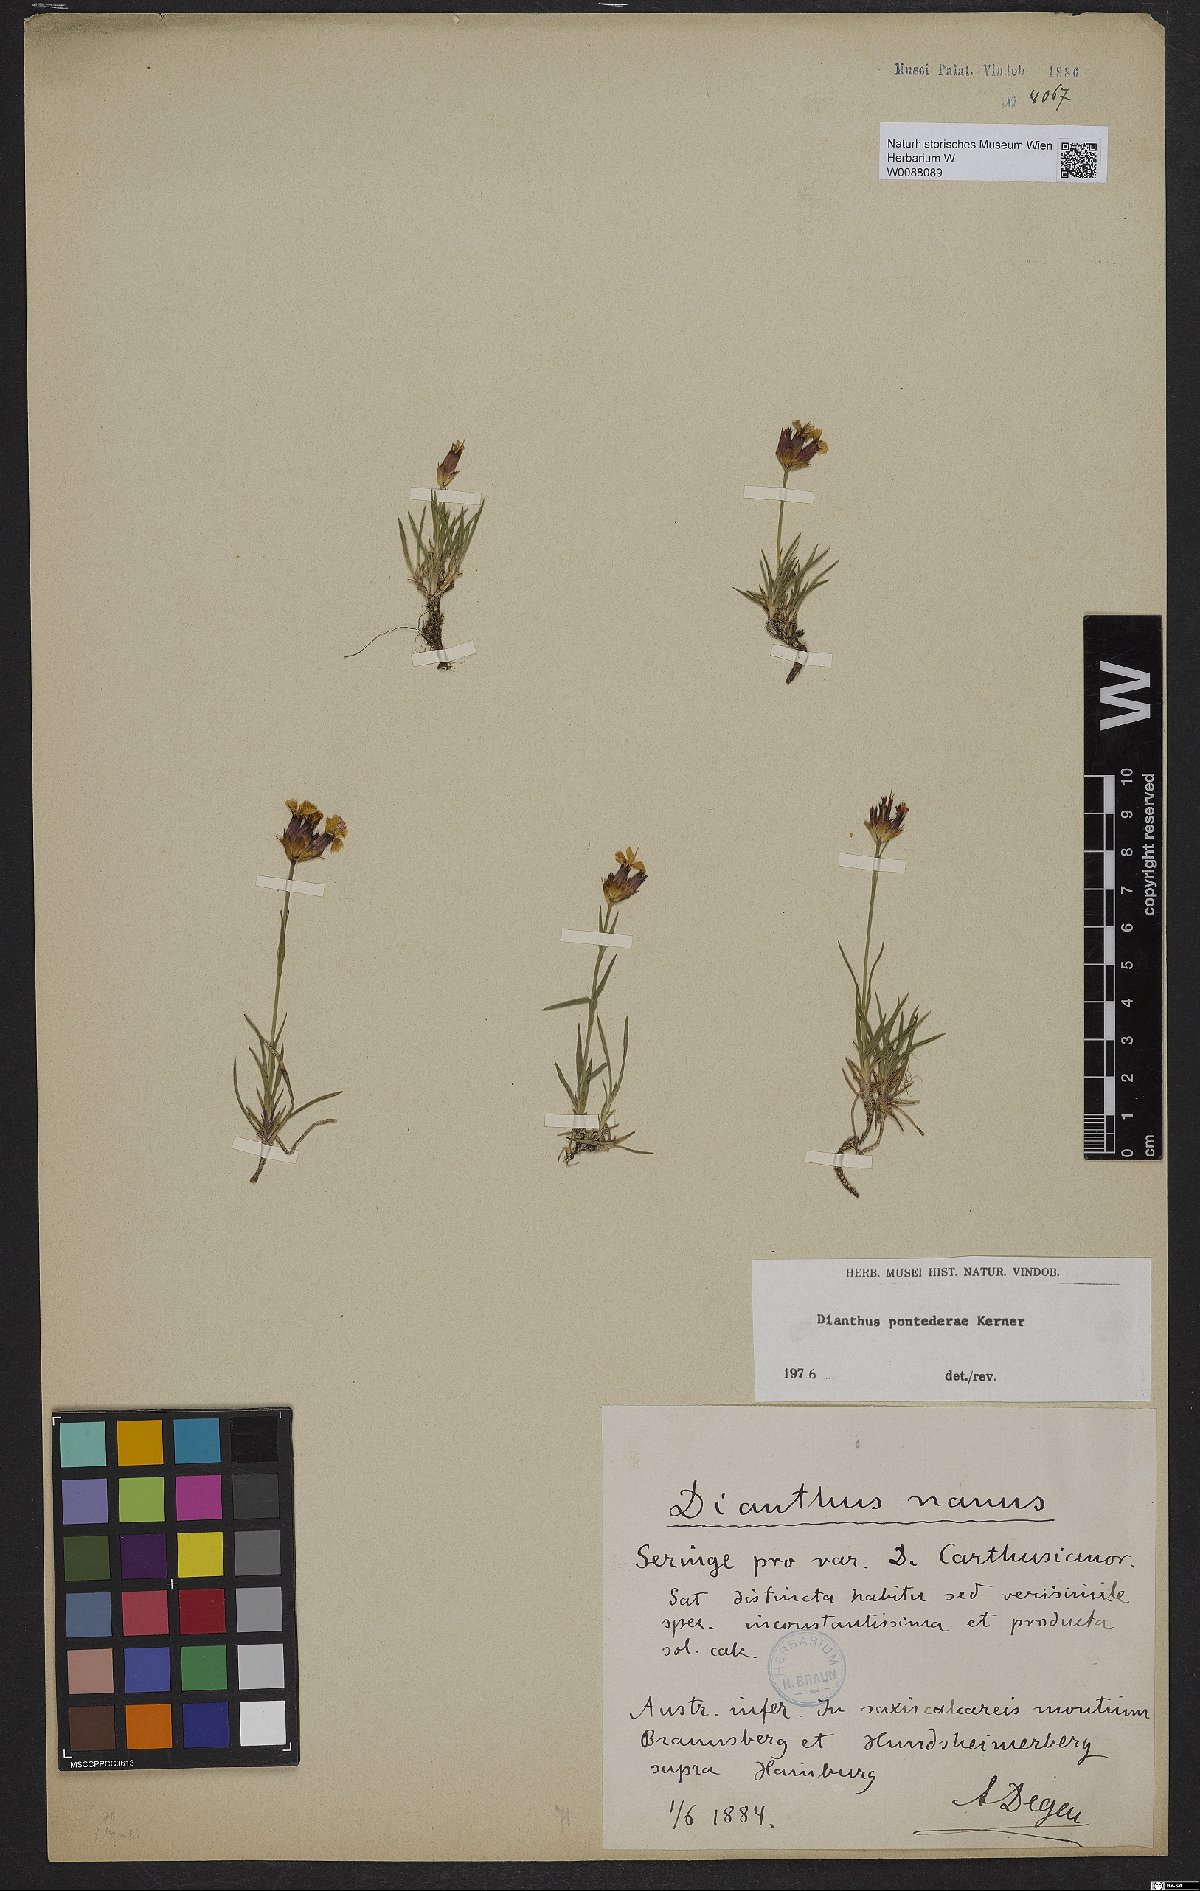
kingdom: Plantae
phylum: Tracheophyta
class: Magnoliopsida
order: Caryophyllales
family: Caryophyllaceae
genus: Dianthus
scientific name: Dianthus pontederae
